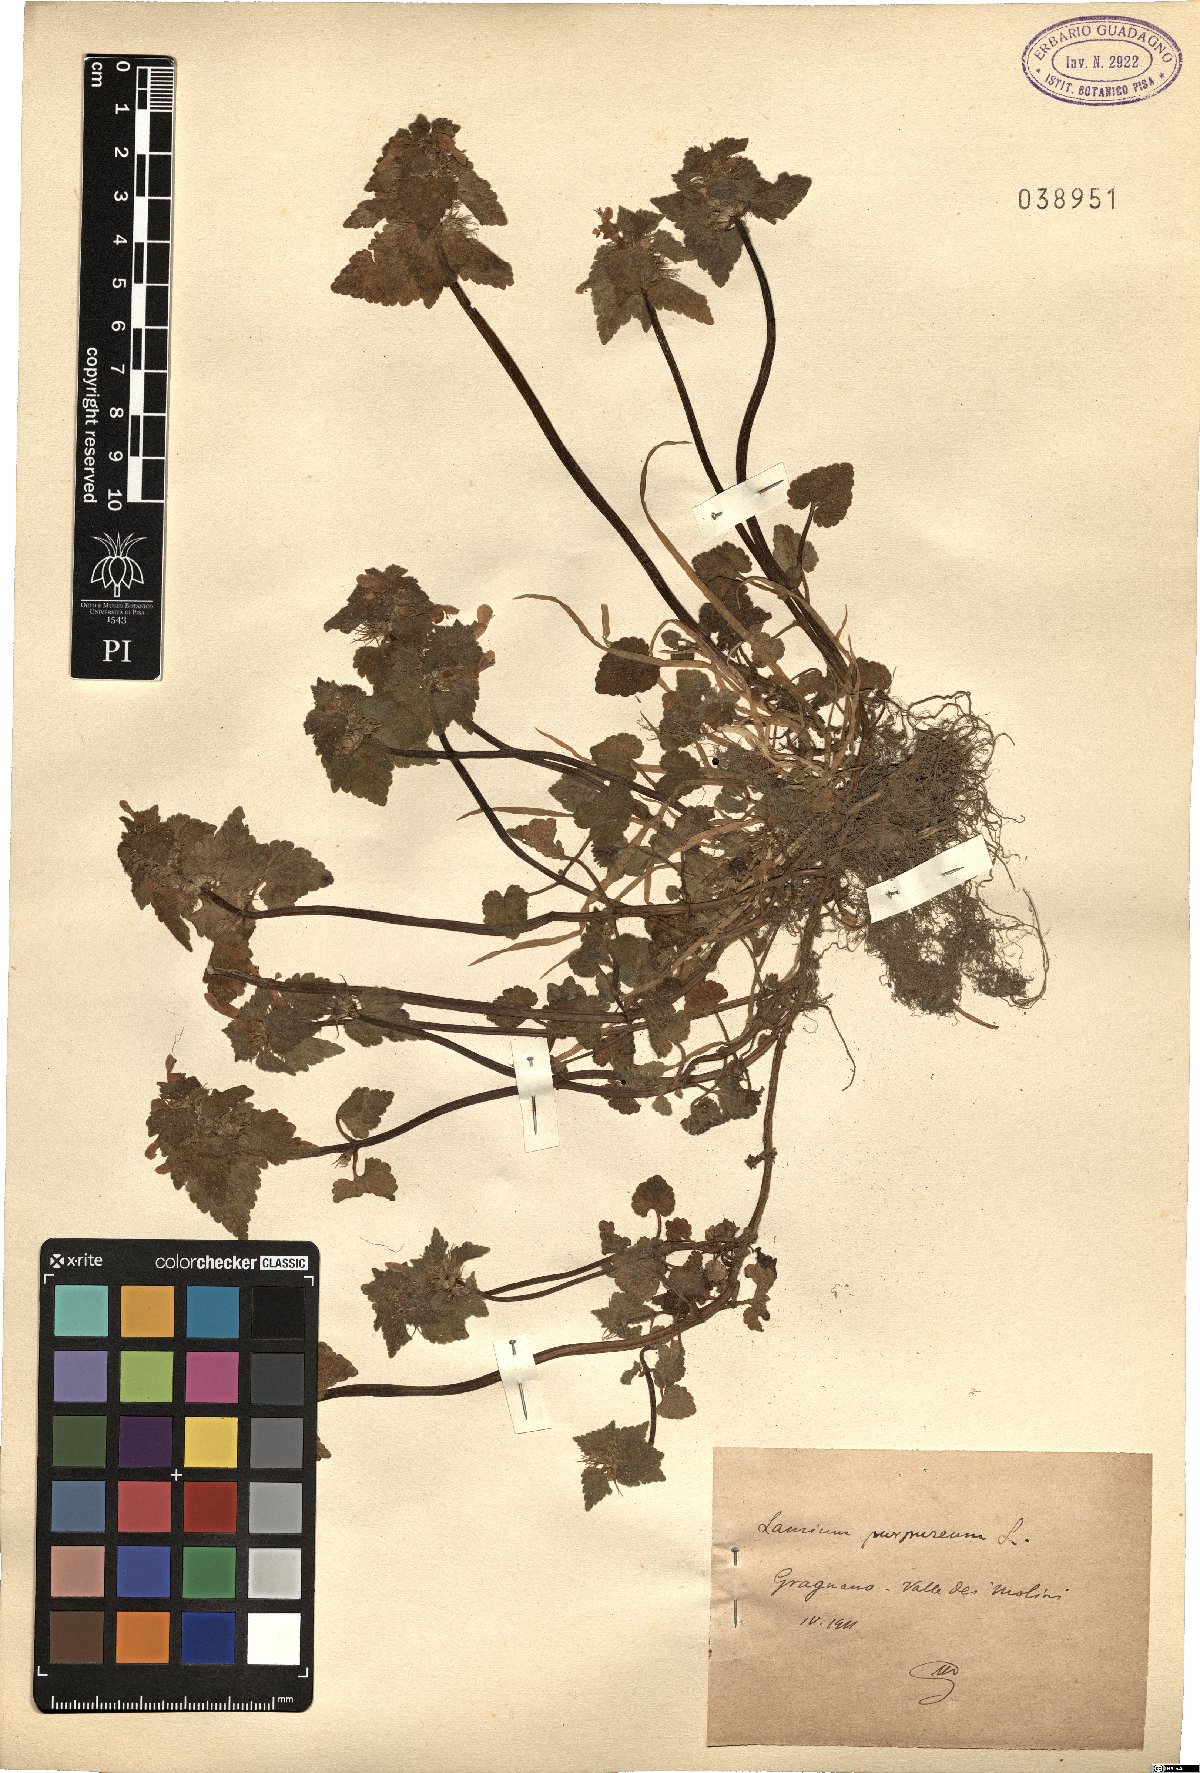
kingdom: Plantae
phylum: Tracheophyta
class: Magnoliopsida
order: Lamiales
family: Lamiaceae
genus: Lamium
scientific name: Lamium purpureum
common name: Red dead-nettle
